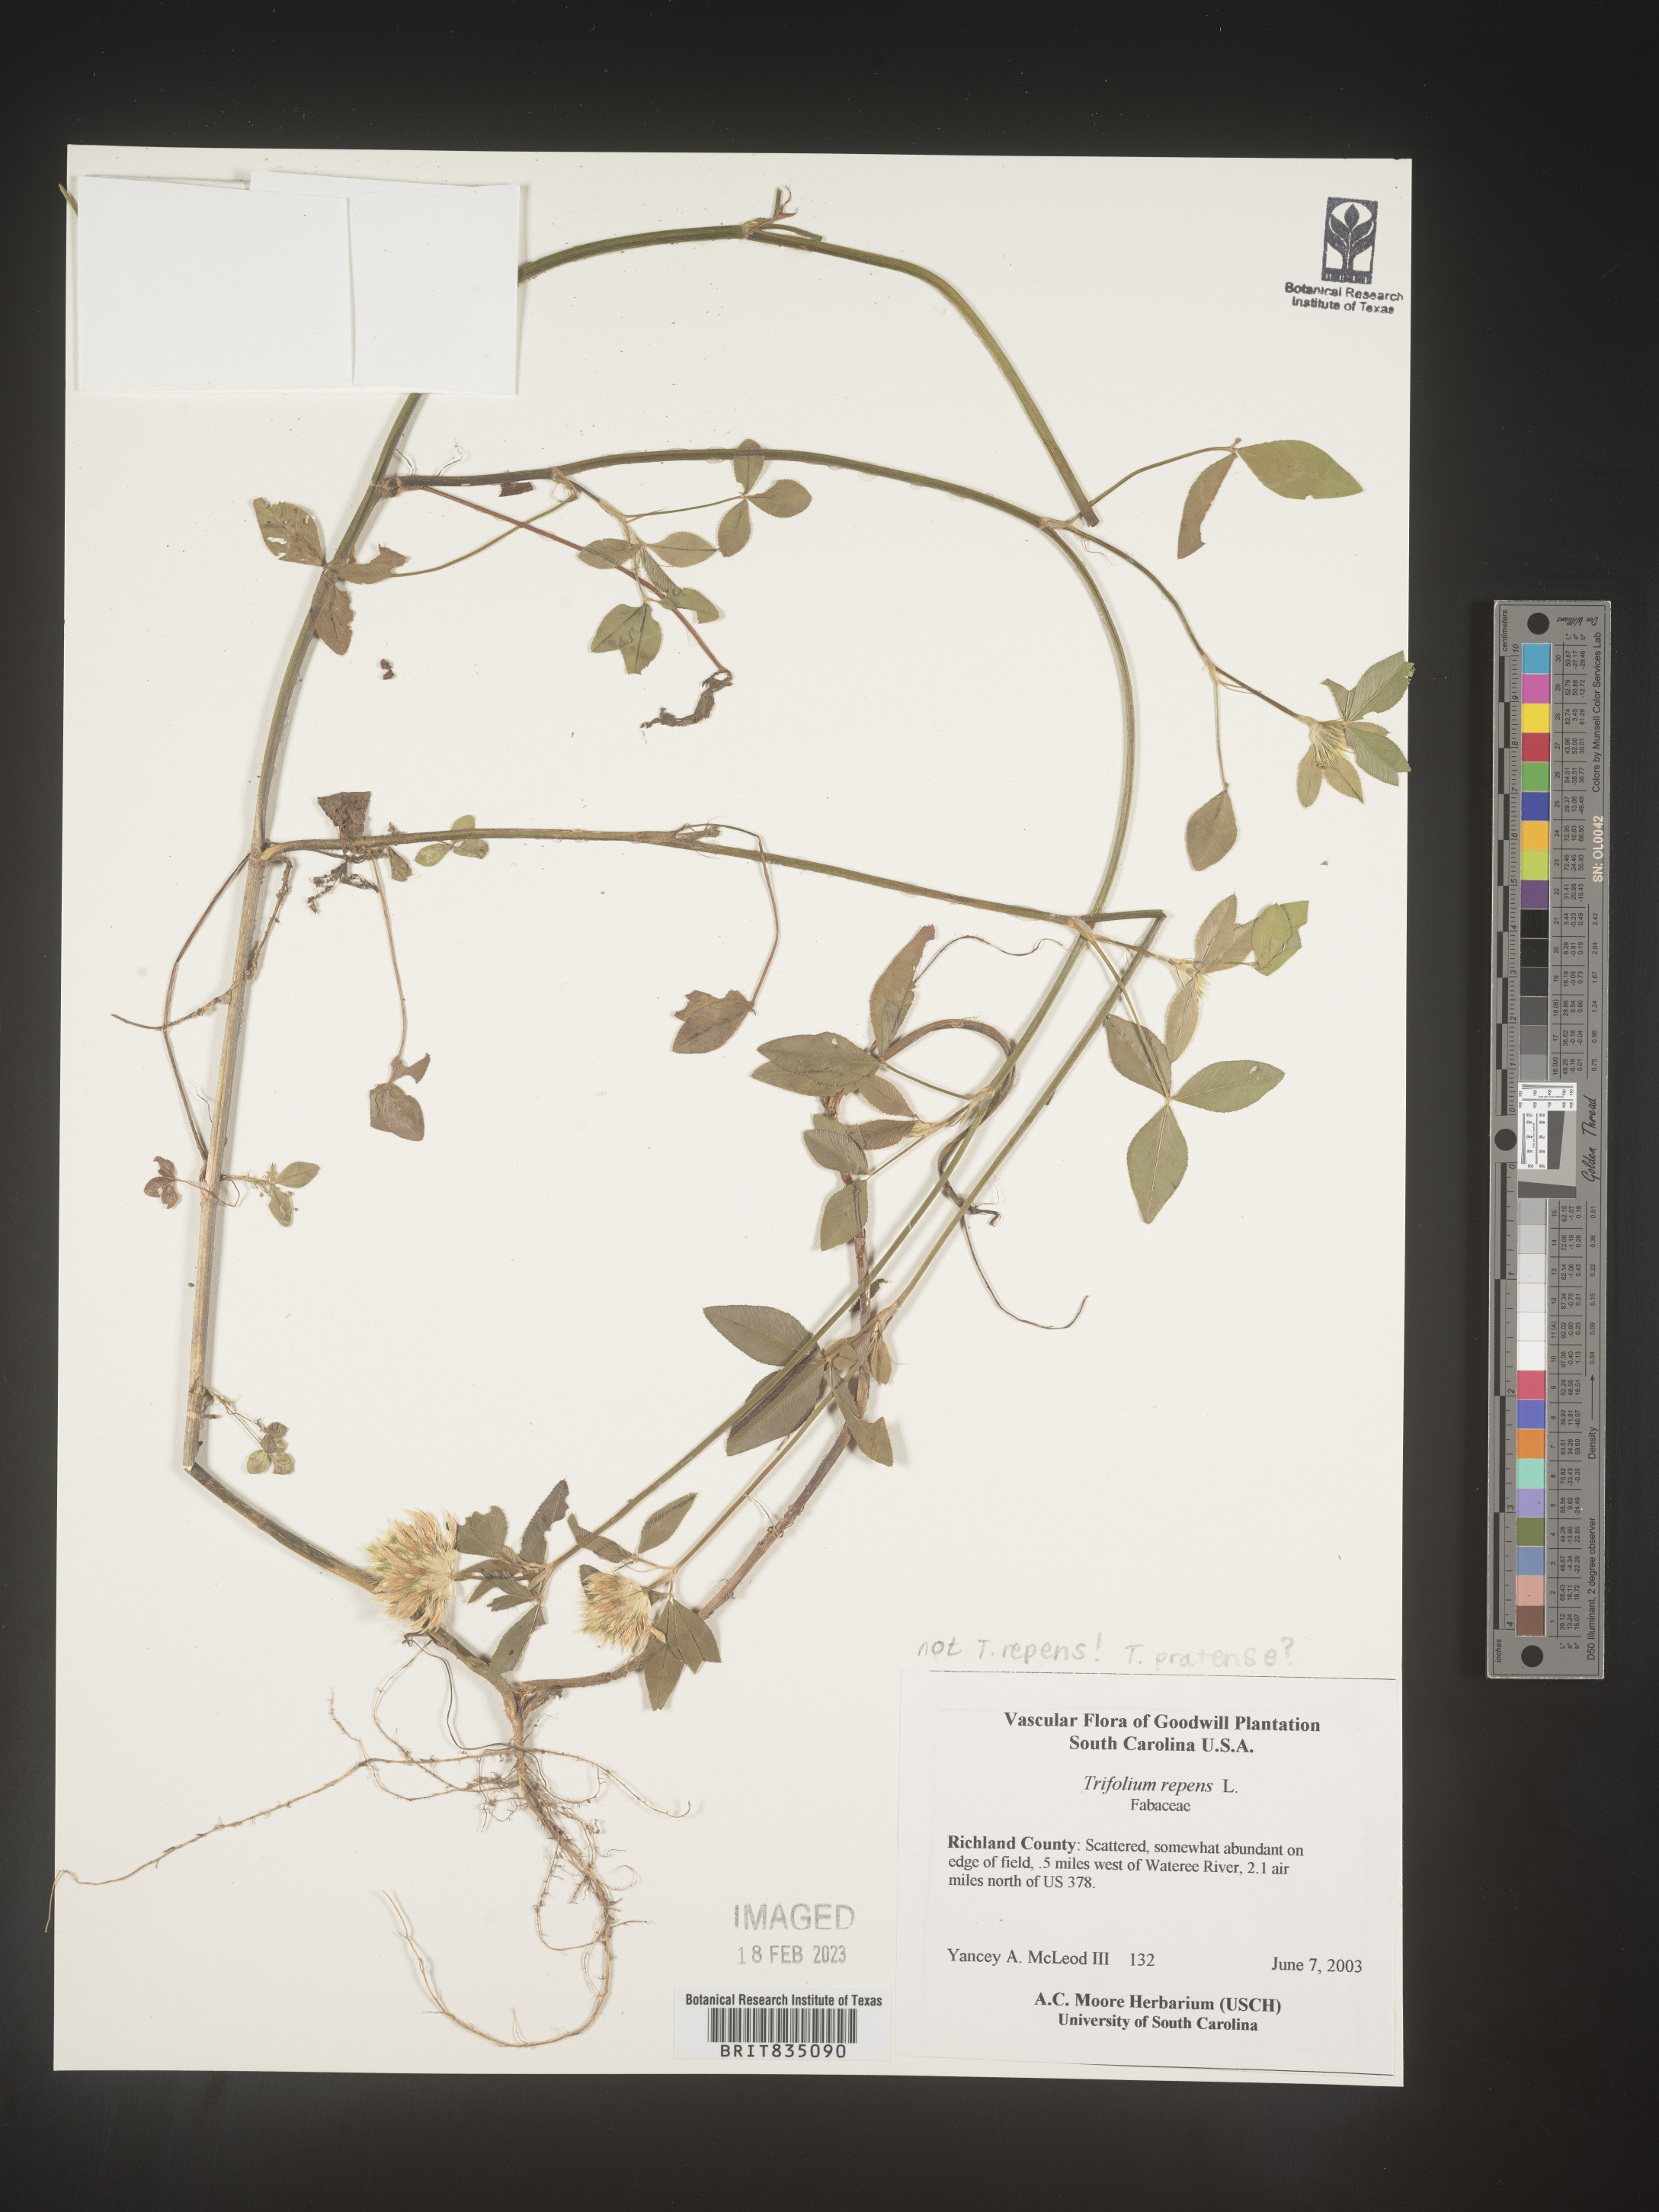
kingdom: Plantae
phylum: Tracheophyta
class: Magnoliopsida
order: Fabales
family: Fabaceae
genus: Trifolium
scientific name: Trifolium
